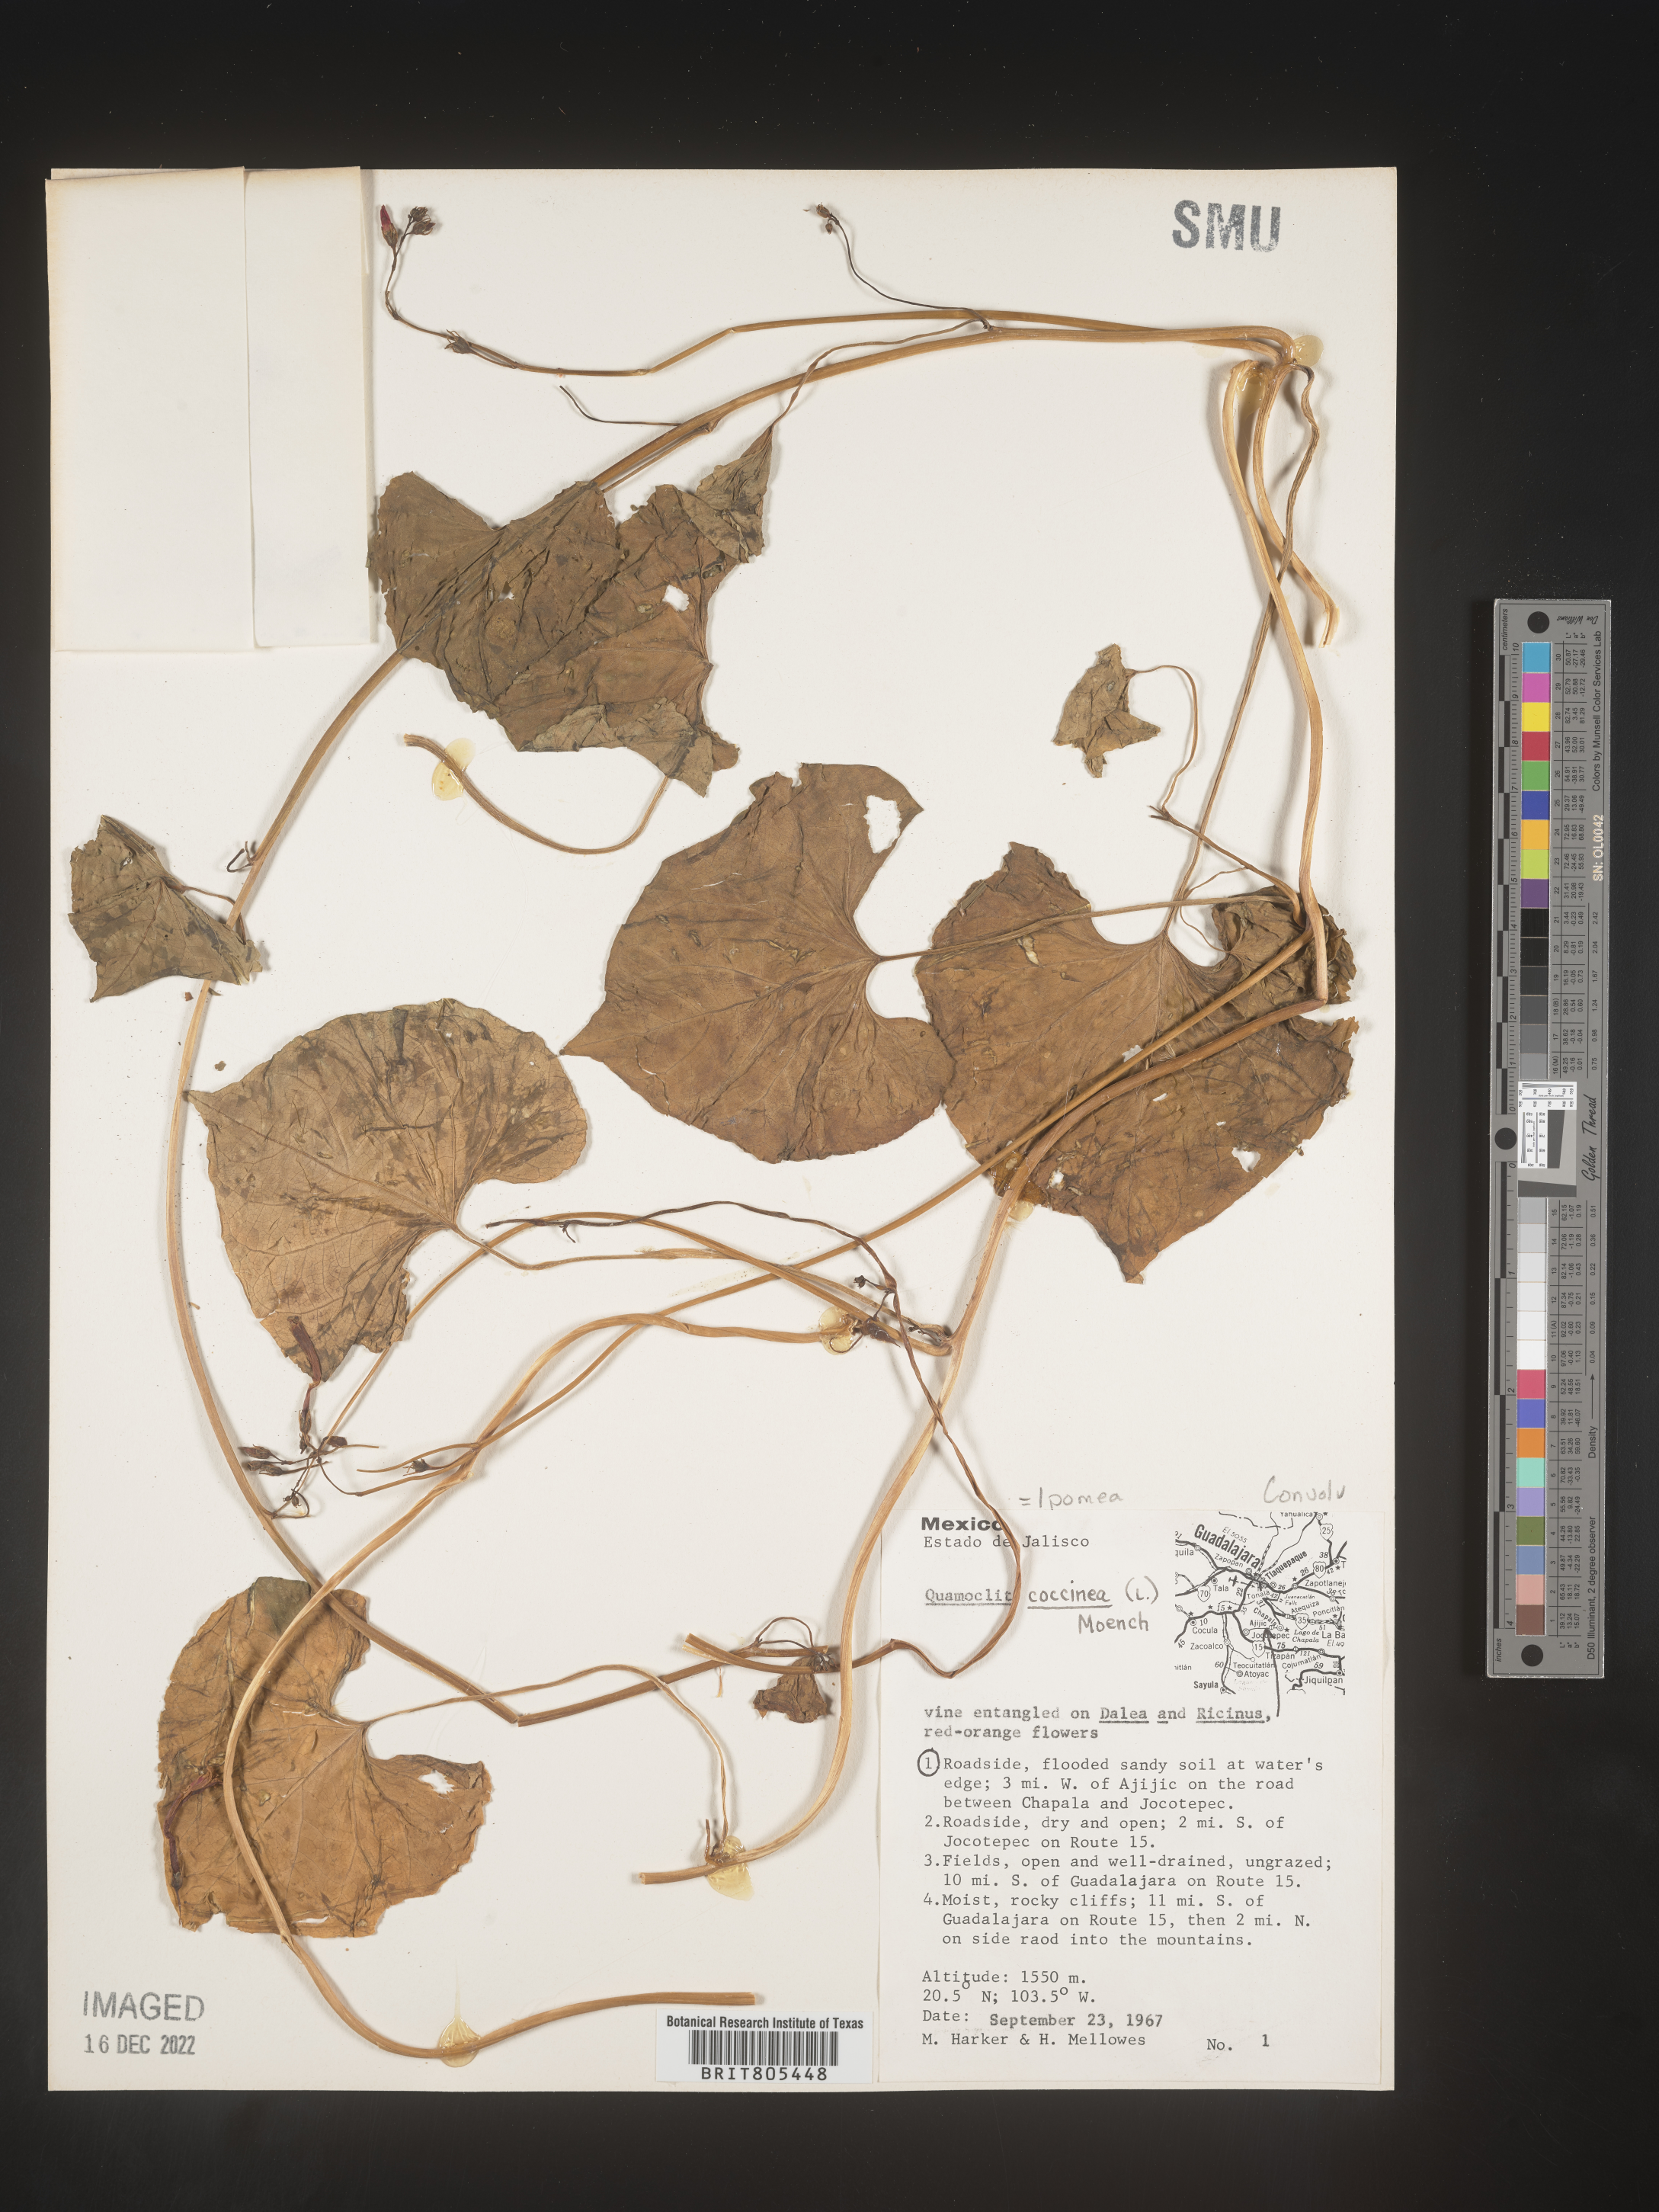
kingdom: Plantae
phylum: Tracheophyta
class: Magnoliopsida
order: Solanales
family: Convolvulaceae
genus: Ipomoea
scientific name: Ipomoea
